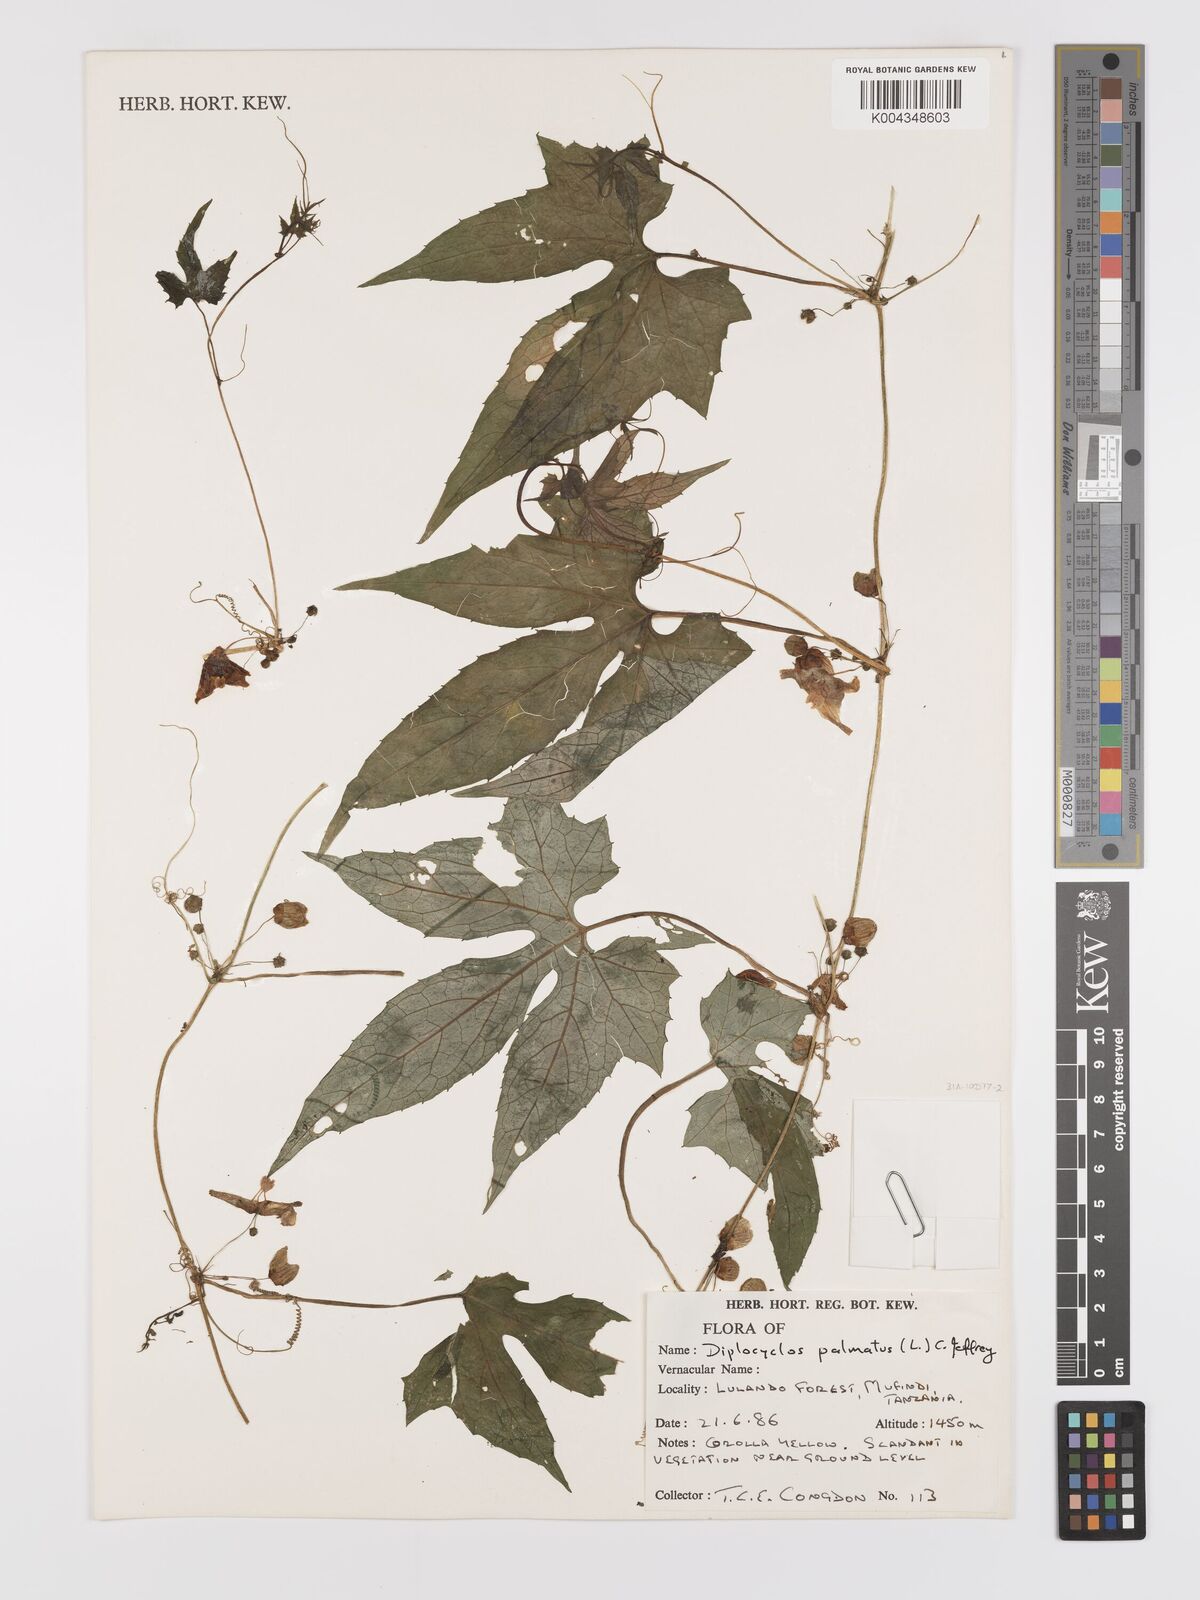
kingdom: Plantae
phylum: Tracheophyta
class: Magnoliopsida
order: Cucurbitales
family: Cucurbitaceae
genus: Diplocyclos
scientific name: Diplocyclos palmatus
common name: Striped-cucumber
